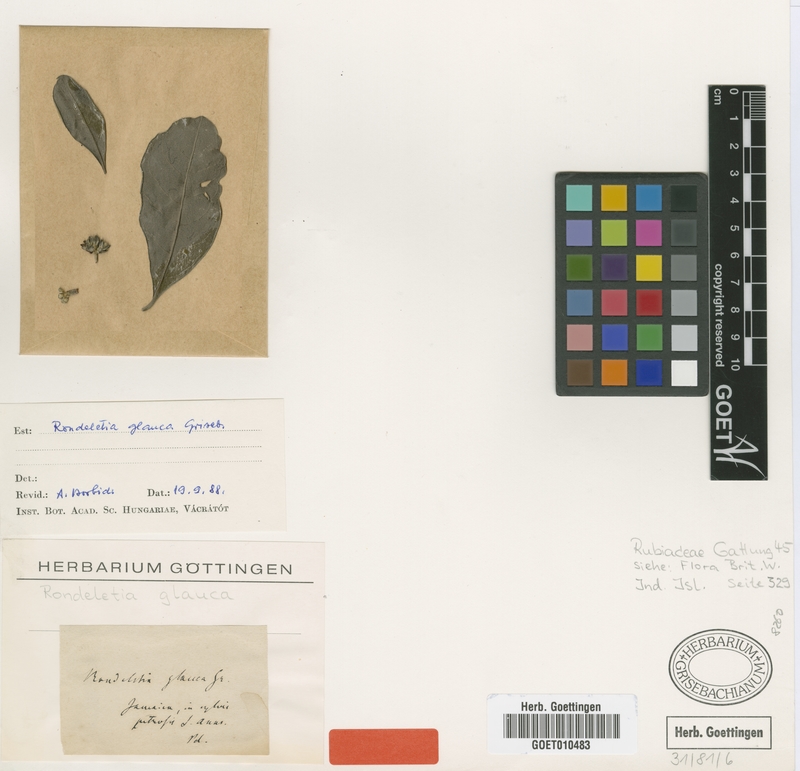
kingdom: Plantae
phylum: Tracheophyta
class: Magnoliopsida
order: Gentianales
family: Rubiaceae
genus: Rondeletia
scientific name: Rondeletia glauca
